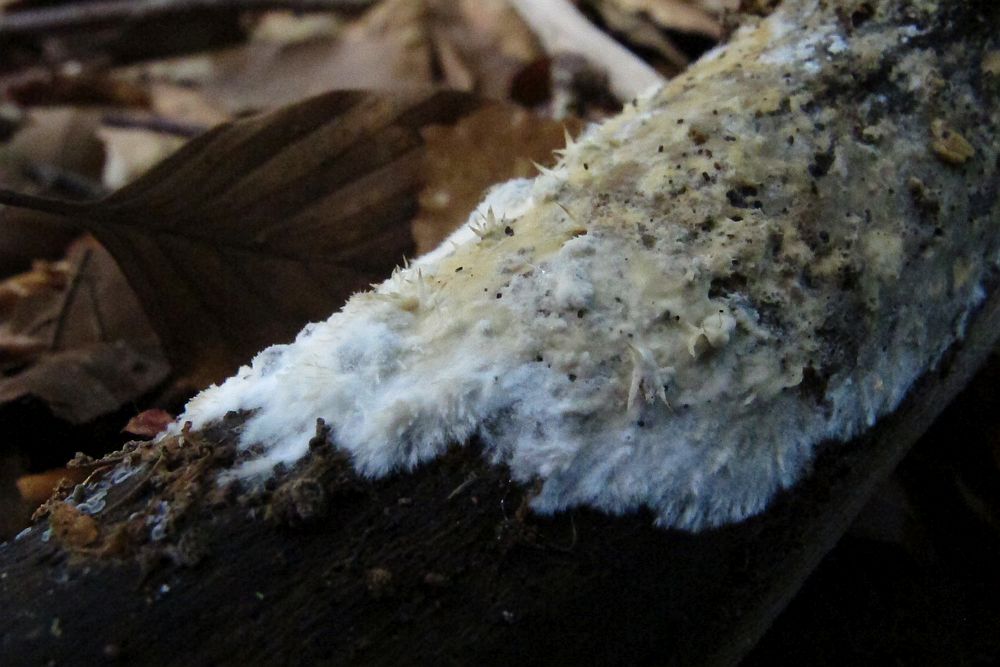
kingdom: Fungi
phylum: Basidiomycota
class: Agaricomycetes
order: Sebacinales
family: Sebacinaceae
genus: Sebacina
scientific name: Sebacina incrustans
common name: krybende bævretalg
